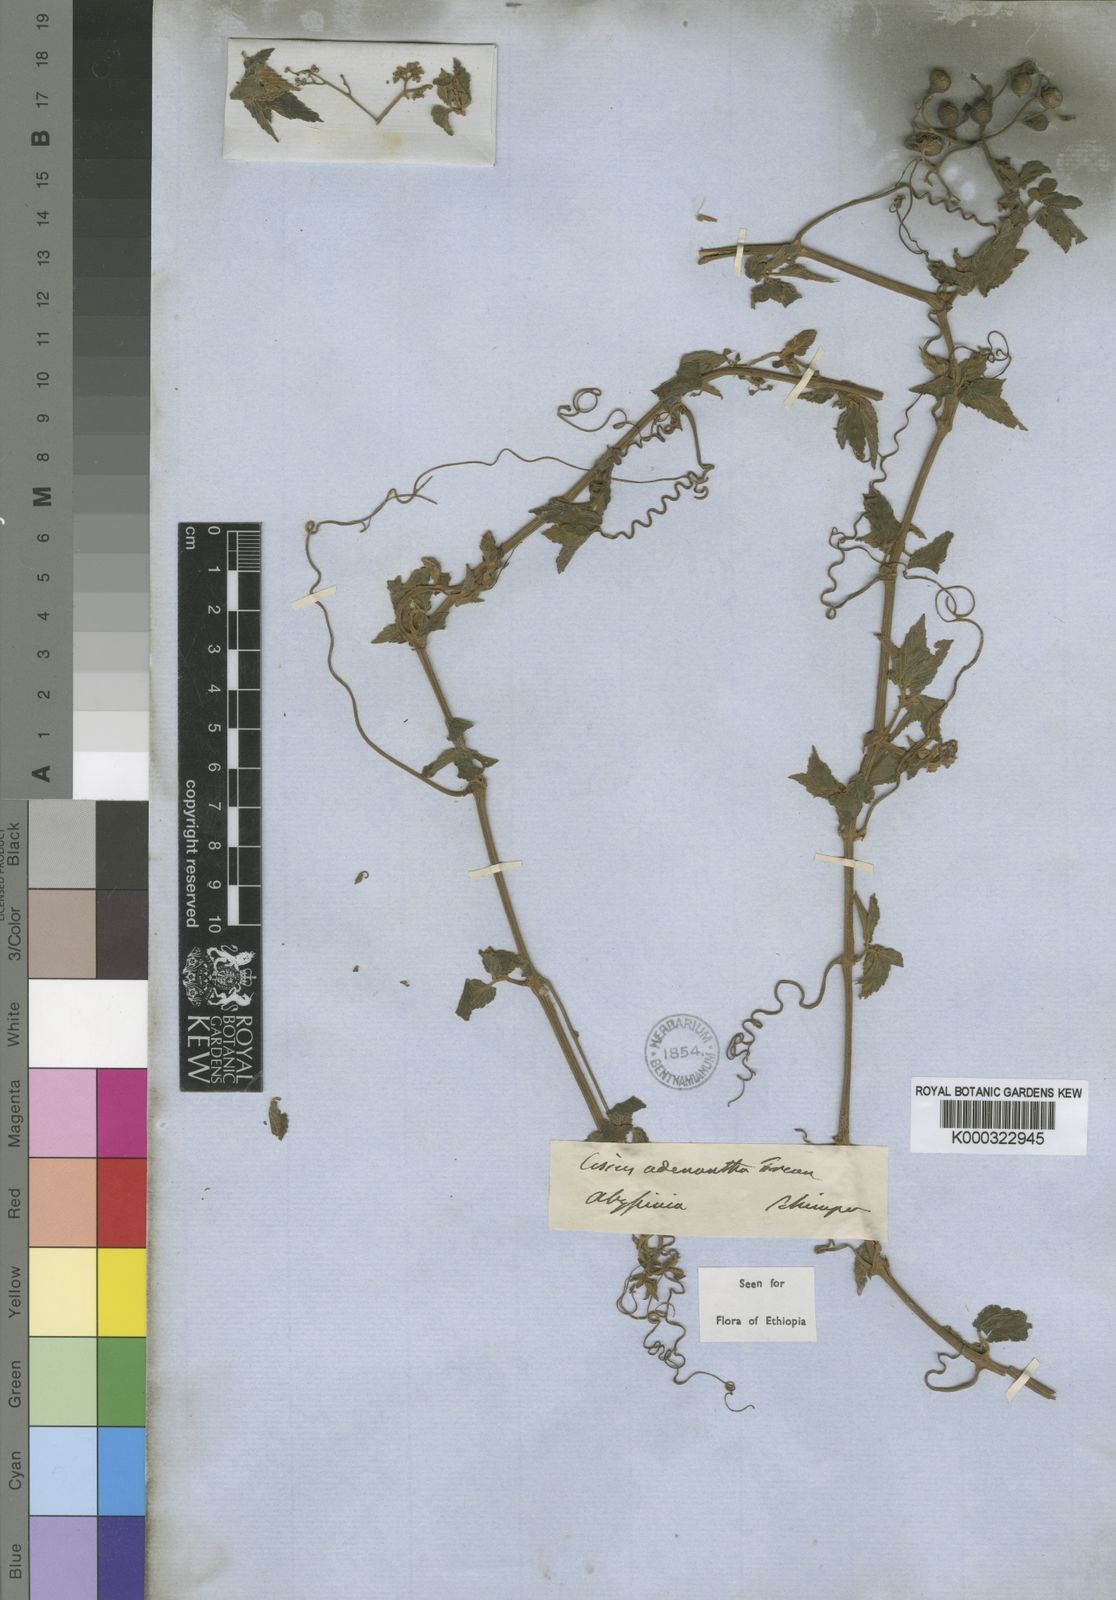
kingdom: Plantae
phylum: Tracheophyta
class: Magnoliopsida
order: Vitales
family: Vitaceae
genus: Cyphostemma
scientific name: Cyphostemma adenocaule
